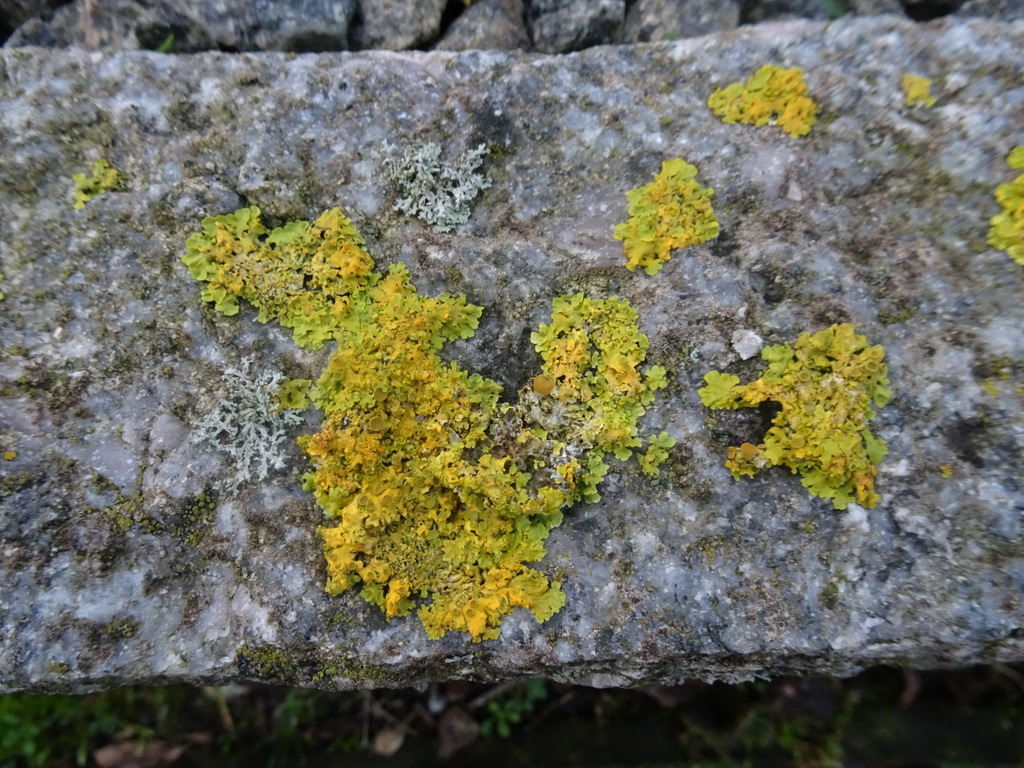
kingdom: Fungi
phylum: Ascomycota
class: Lecanoromycetes
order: Teloschistales
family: Teloschistaceae
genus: Xanthoria
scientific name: Xanthoria parietina
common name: almindelig væggelav
